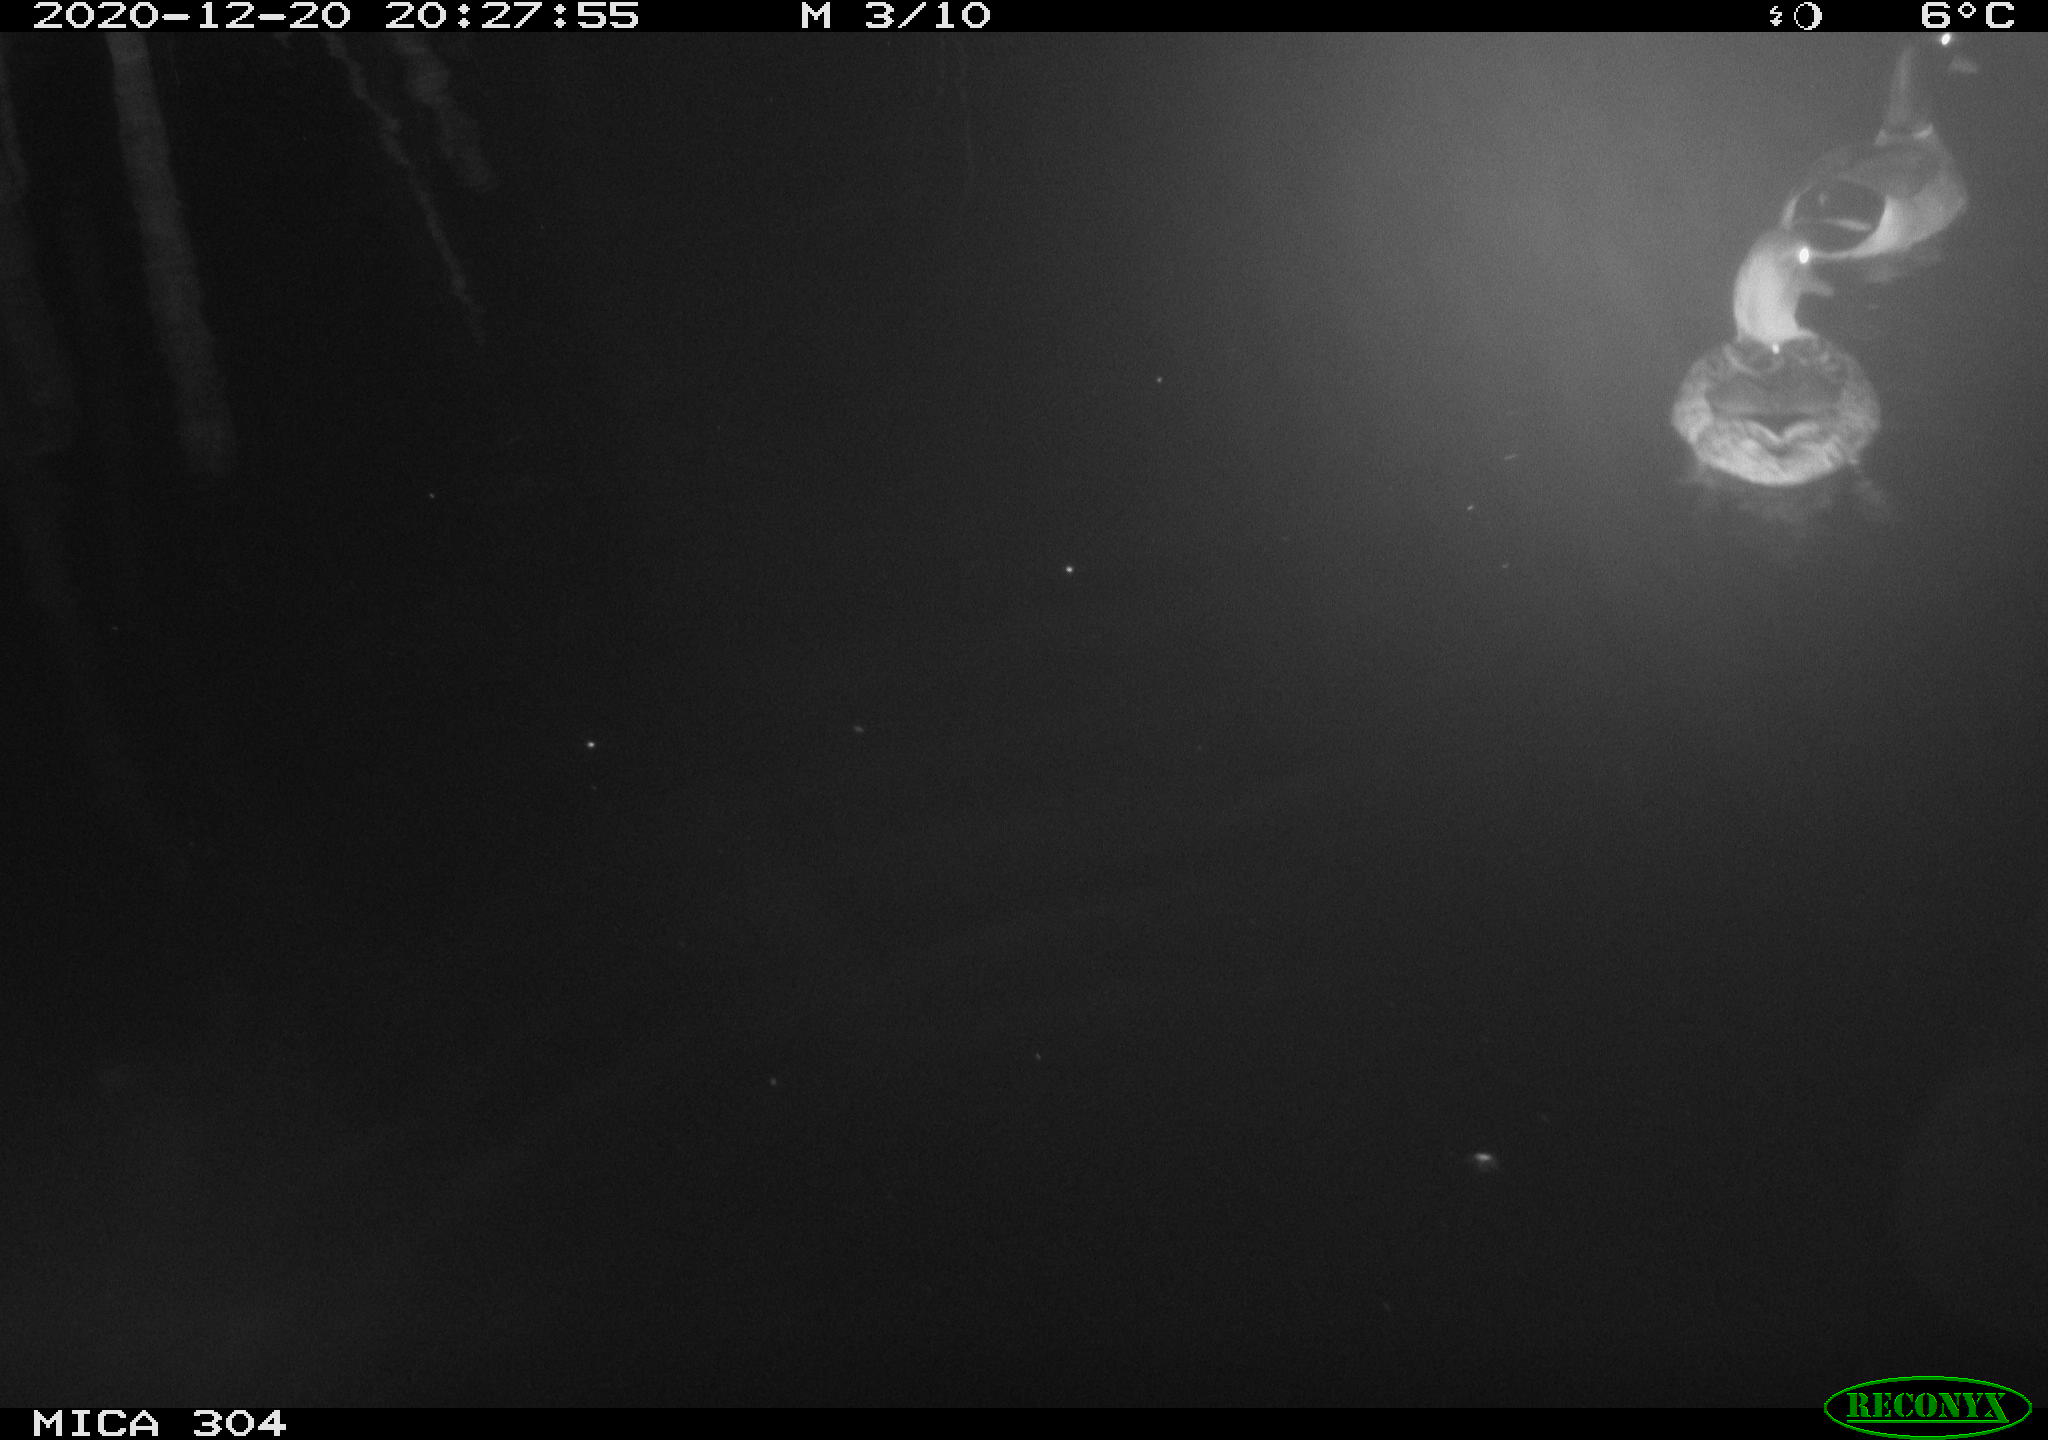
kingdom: Animalia
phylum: Chordata
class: Aves
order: Anseriformes
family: Anatidae
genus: Anas
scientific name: Anas platyrhynchos
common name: Mallard
